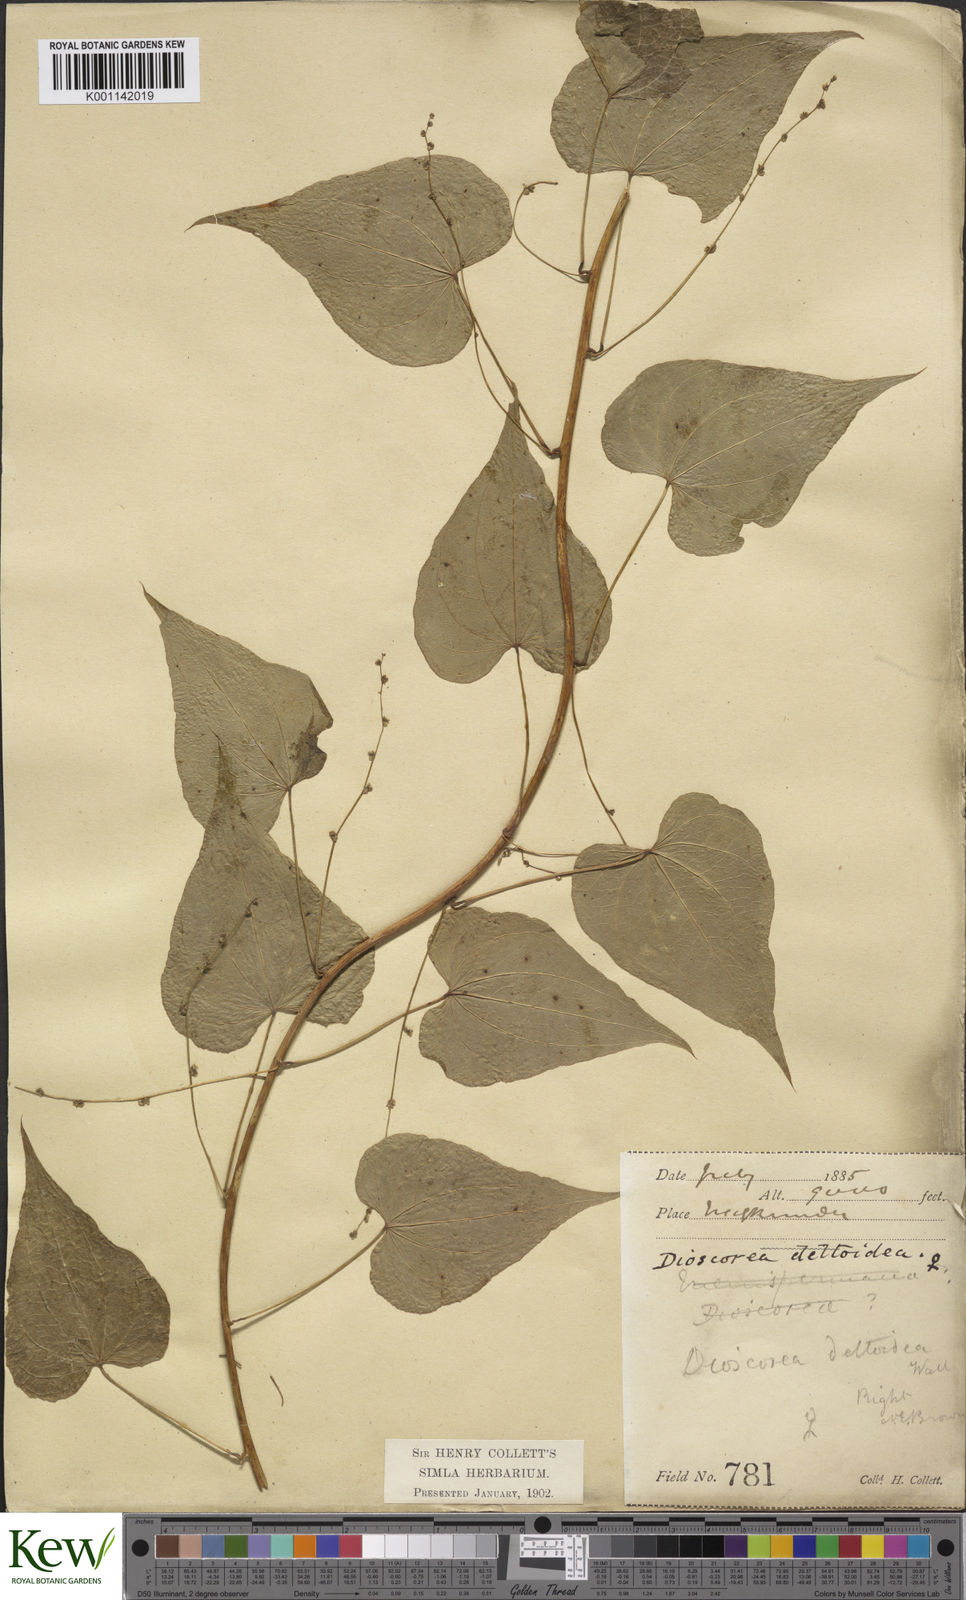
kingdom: Plantae
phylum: Tracheophyta
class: Liliopsida
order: Dioscoreales
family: Dioscoreaceae
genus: Dioscorea
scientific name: Dioscorea deltoidea
